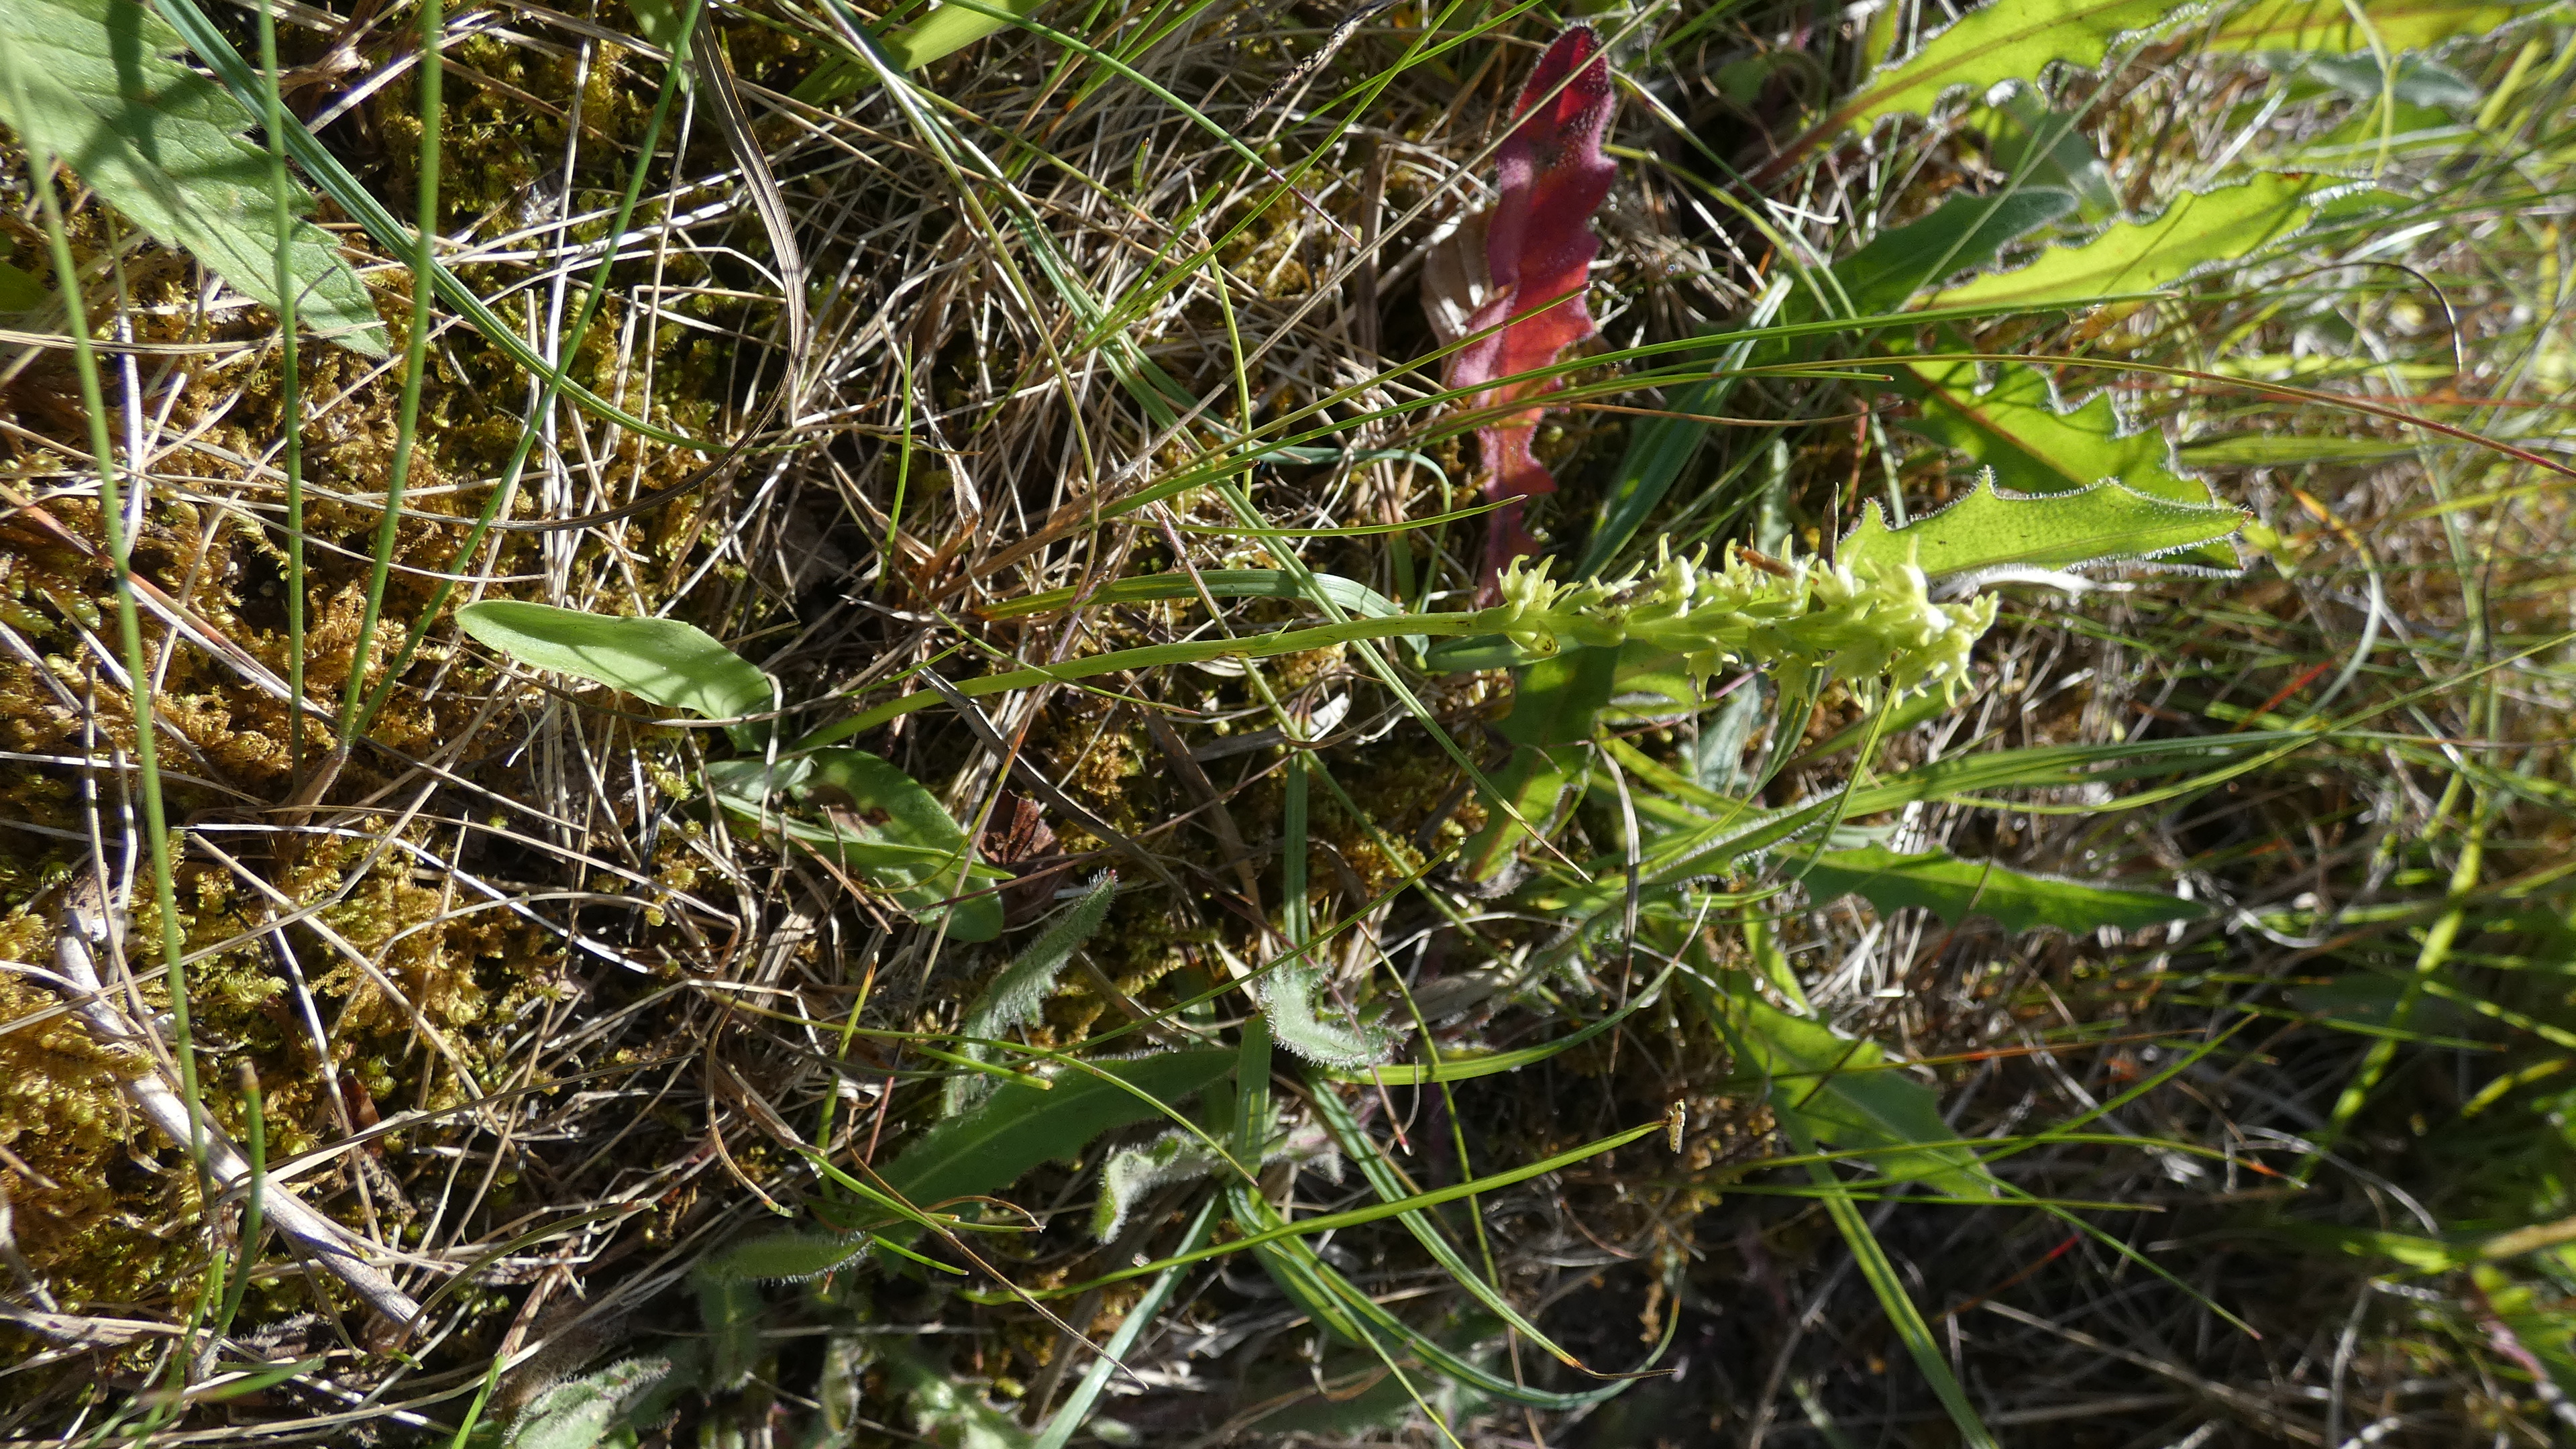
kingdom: Plantae
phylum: Tracheophyta
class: Liliopsida
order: Asparagales
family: Orchidaceae
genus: Herminium
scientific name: Herminium monorchis
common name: Pukkellæbe
